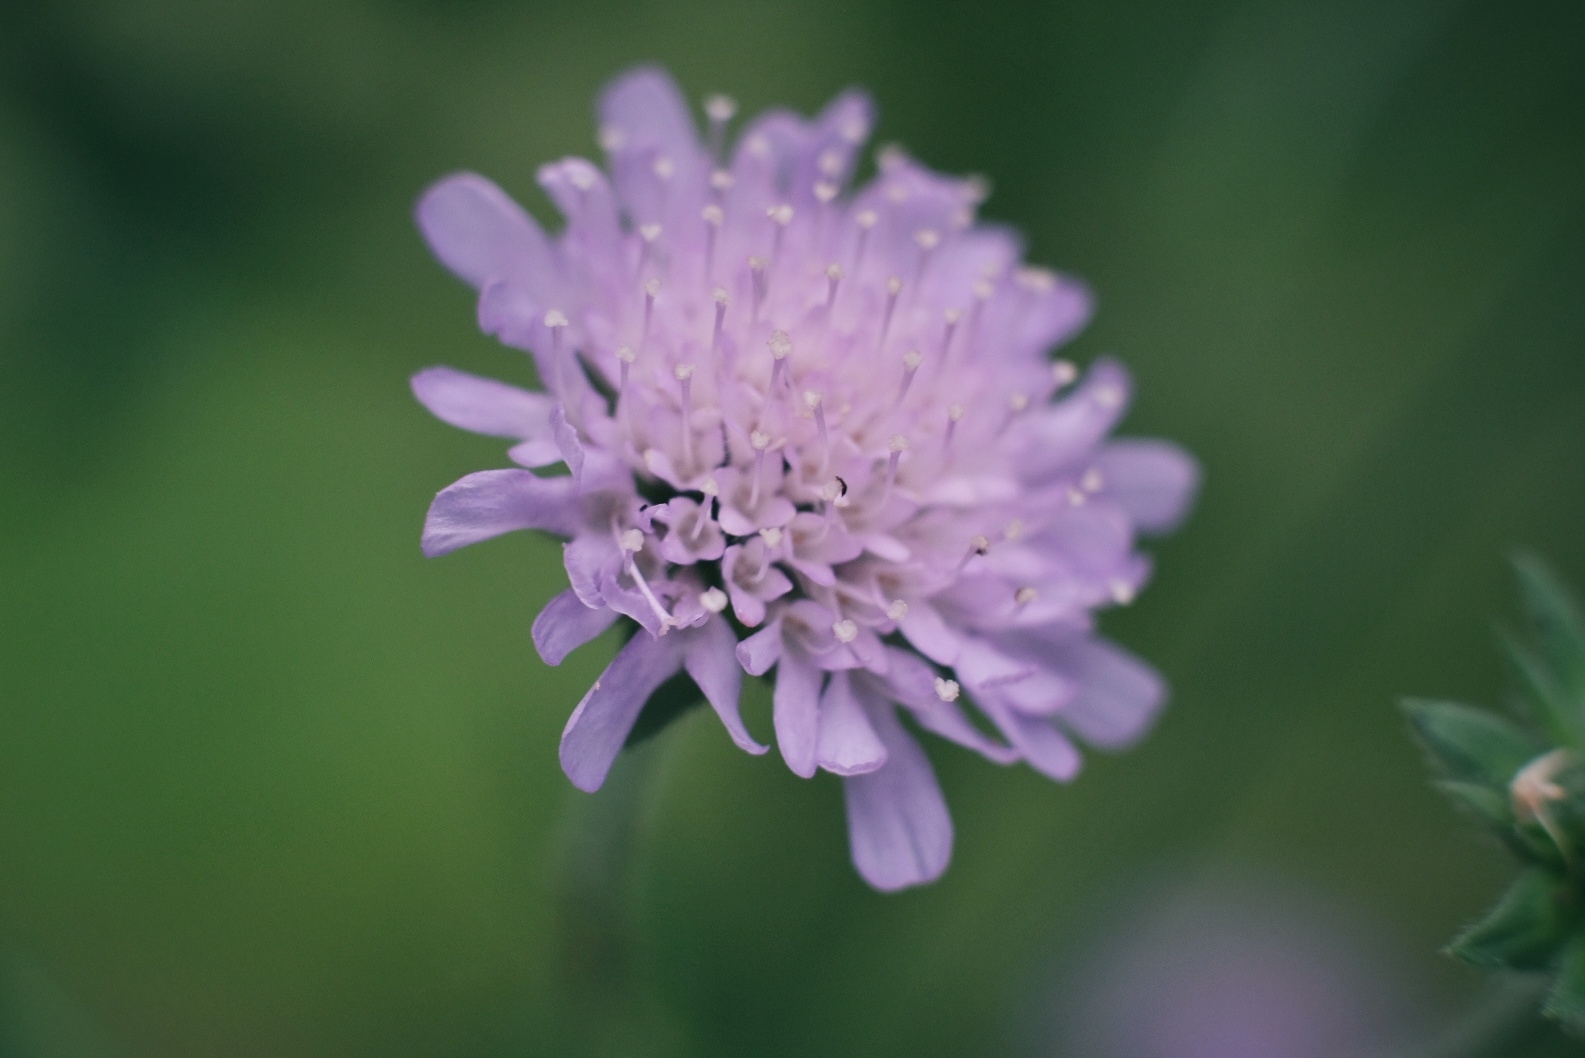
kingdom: Plantae
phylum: Tracheophyta
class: Magnoliopsida
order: Dipsacales
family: Caprifoliaceae
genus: Knautia
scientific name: Knautia arvensis
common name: Blåhat
